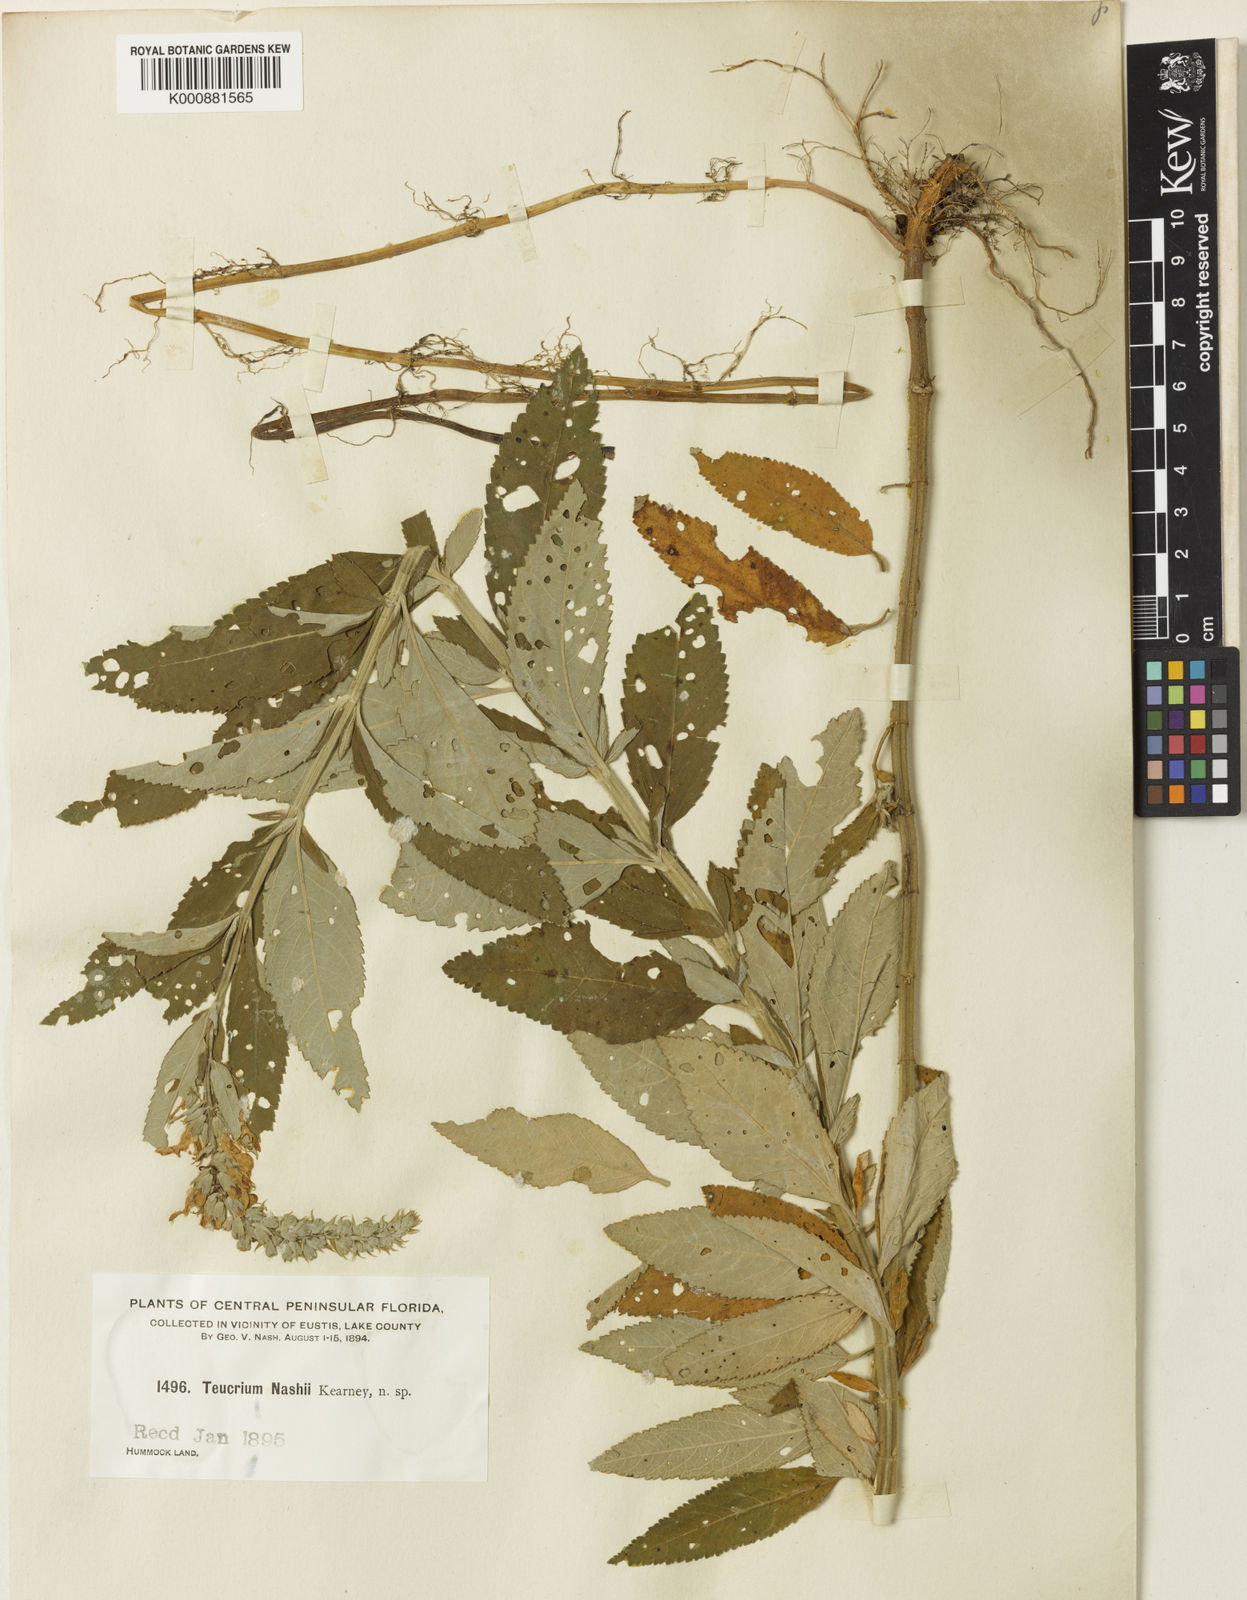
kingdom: Plantae
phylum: Tracheophyta
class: Magnoliopsida
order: Lamiales
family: Lamiaceae
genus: Teucrium
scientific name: Teucrium canadense
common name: American germander
